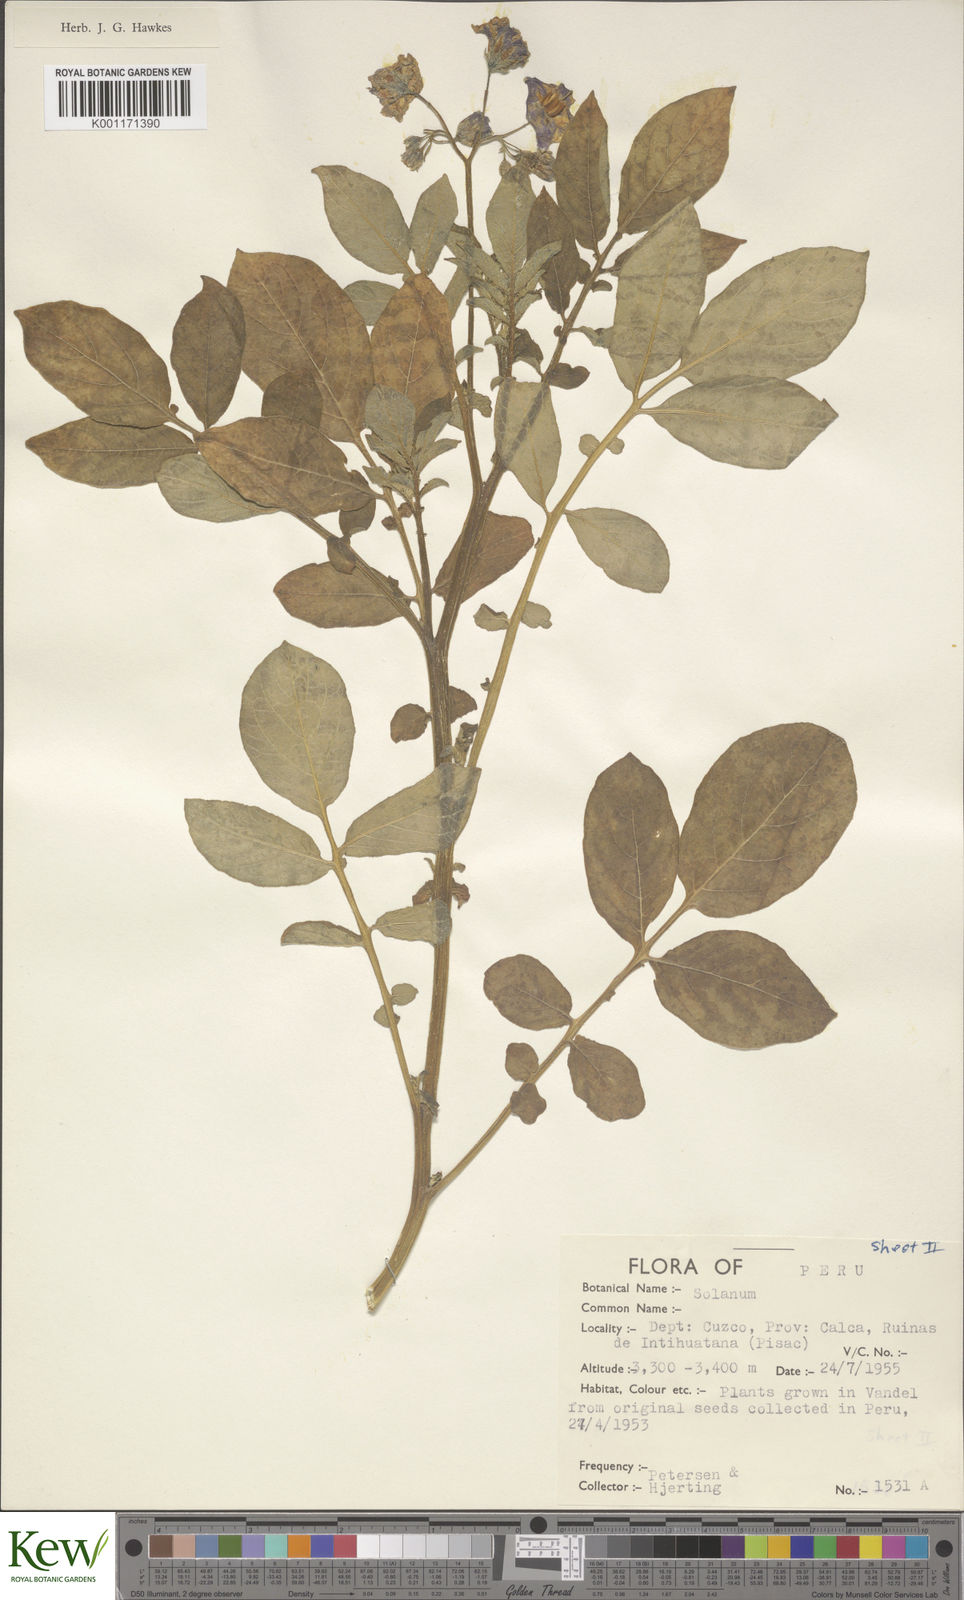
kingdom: Plantae
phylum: Tracheophyta
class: Magnoliopsida
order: Solanales
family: Solanaceae
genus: Solanum
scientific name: Solanum
